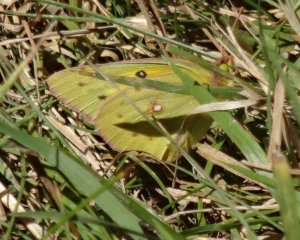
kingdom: Animalia
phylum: Arthropoda
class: Insecta
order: Lepidoptera
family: Pieridae
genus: Colias
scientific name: Colias philodice
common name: Clouded Sulphur
